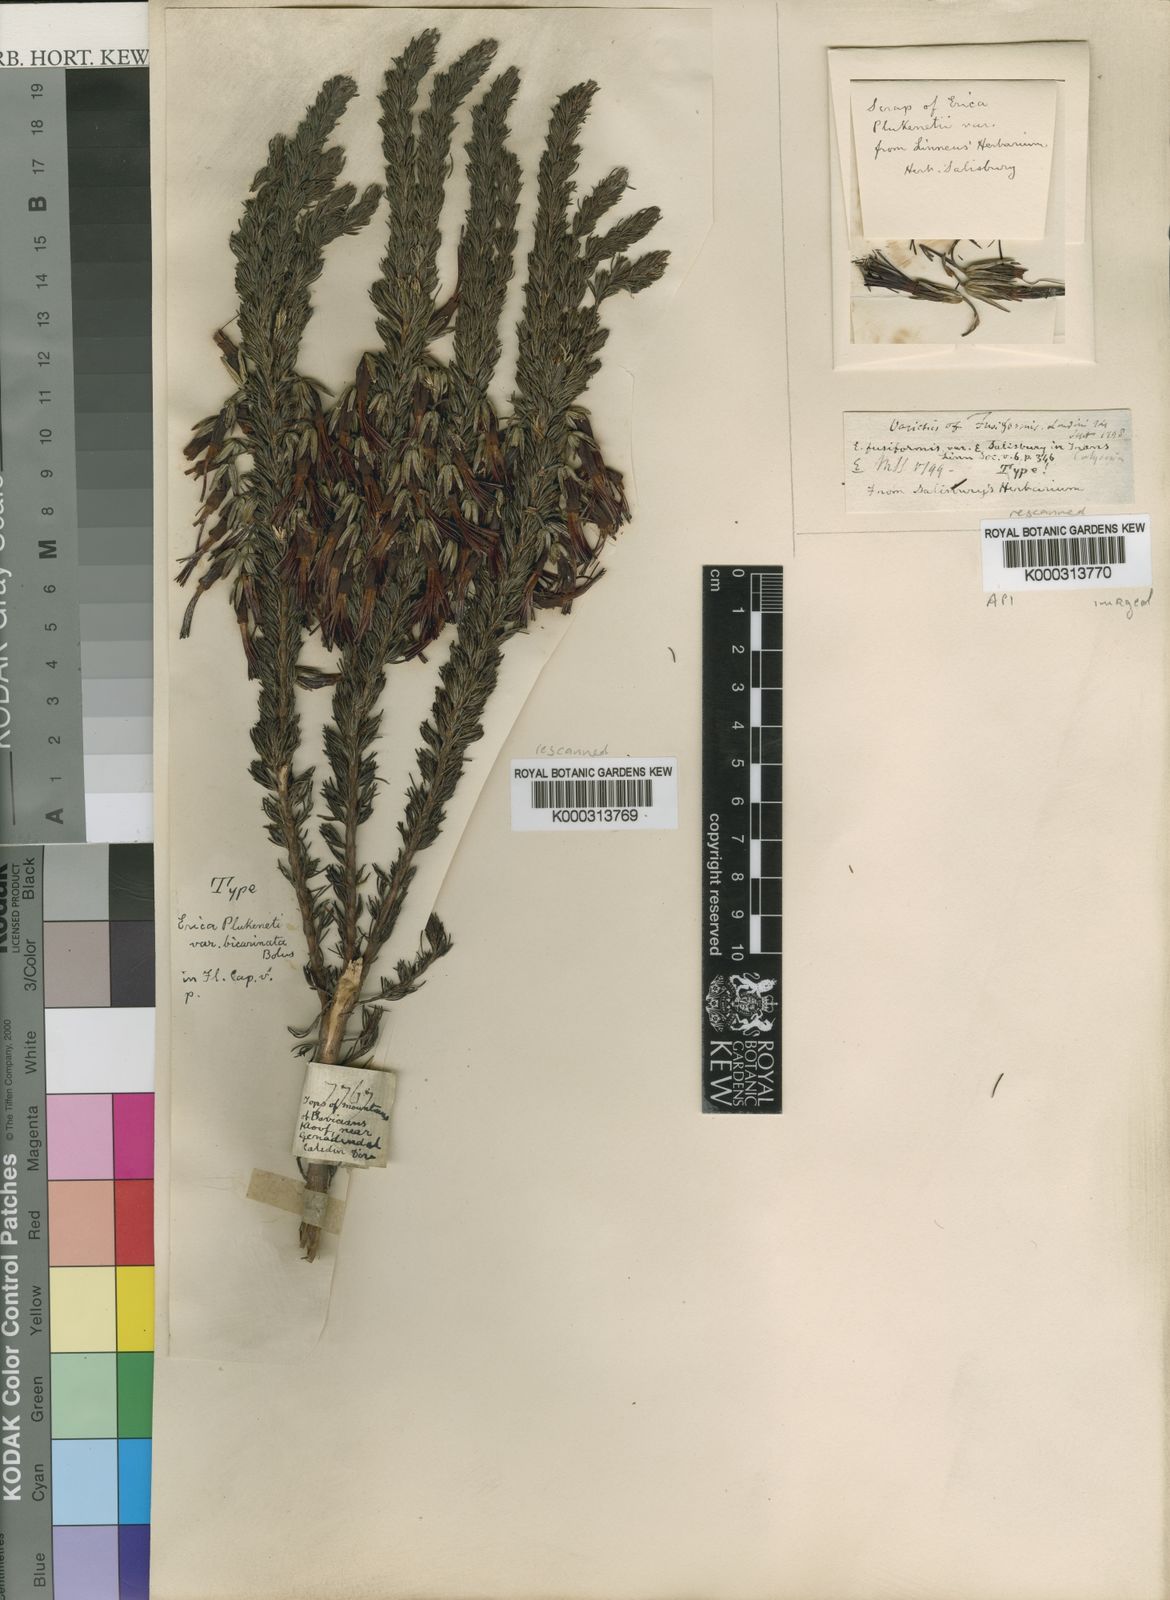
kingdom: Plantae
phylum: Tracheophyta
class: Magnoliopsida
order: Ericales
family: Ericaceae
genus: Erica
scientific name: Erica plukenetii
